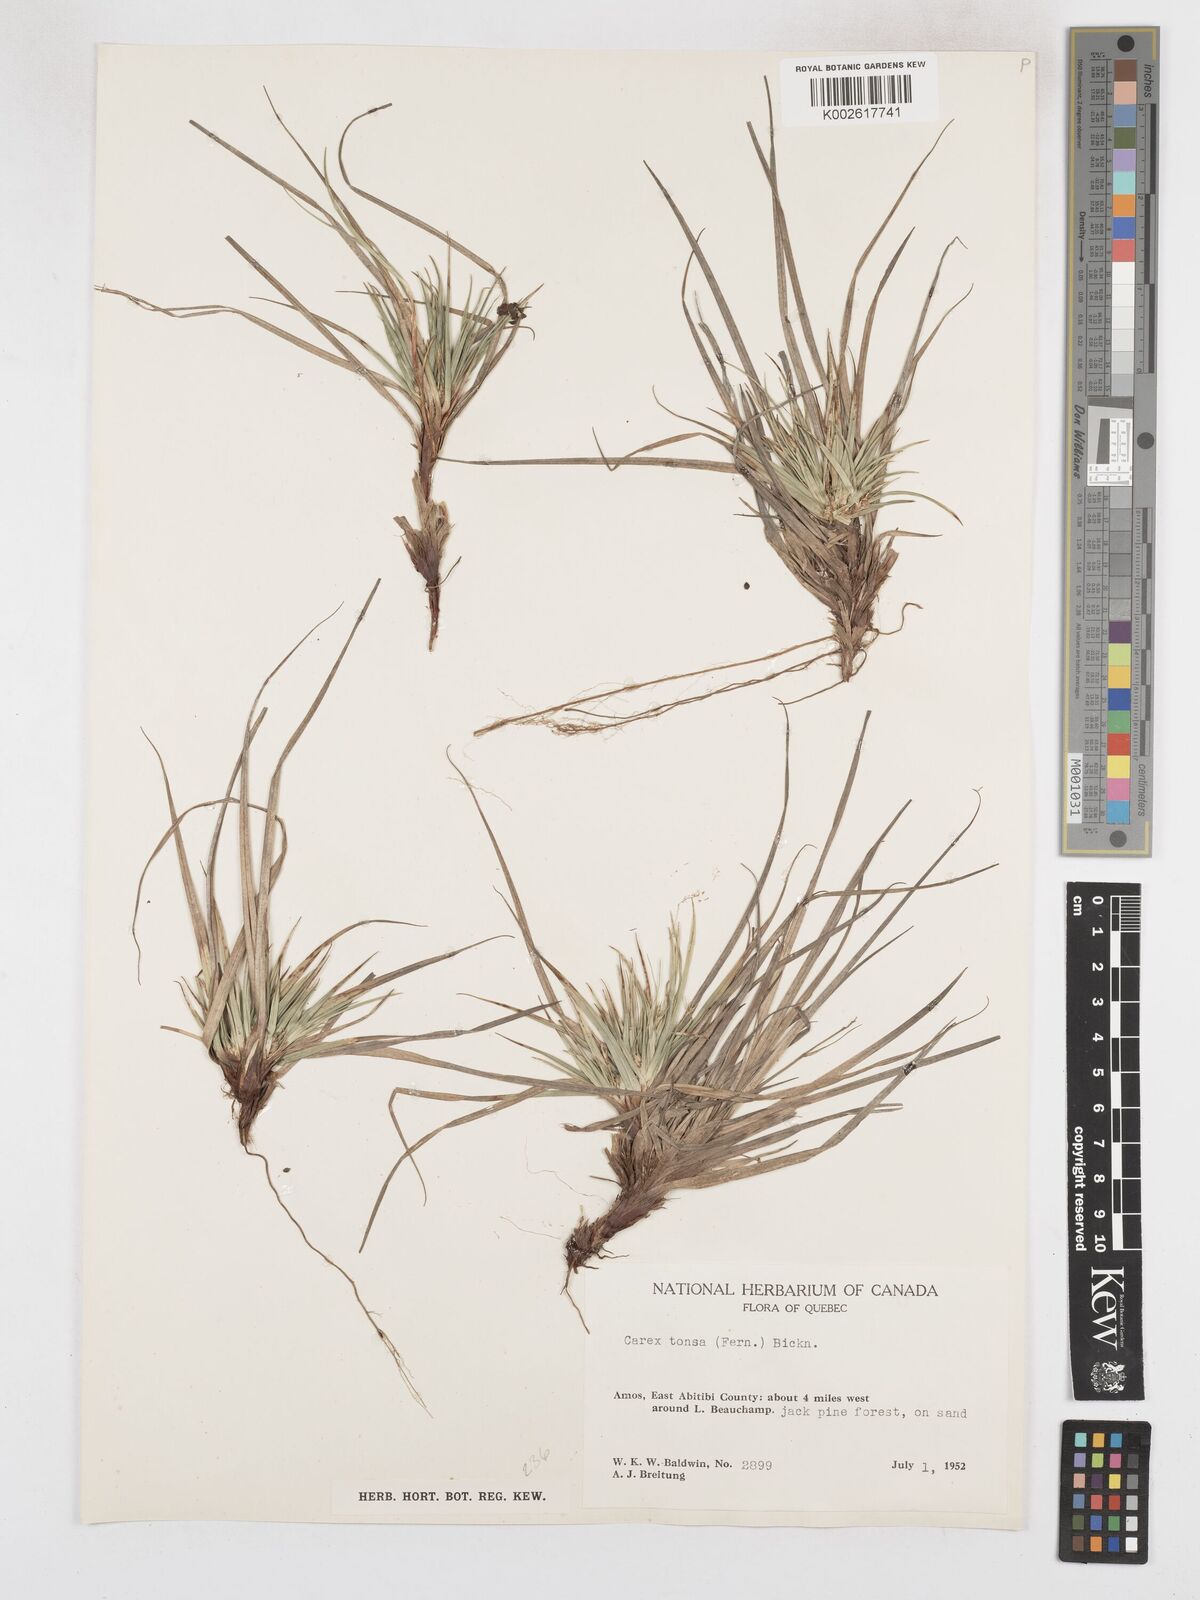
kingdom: Plantae
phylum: Tracheophyta
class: Liliopsida
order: Poales
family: Cyperaceae
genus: Carex
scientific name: Carex tonsa
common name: Bald sedge
